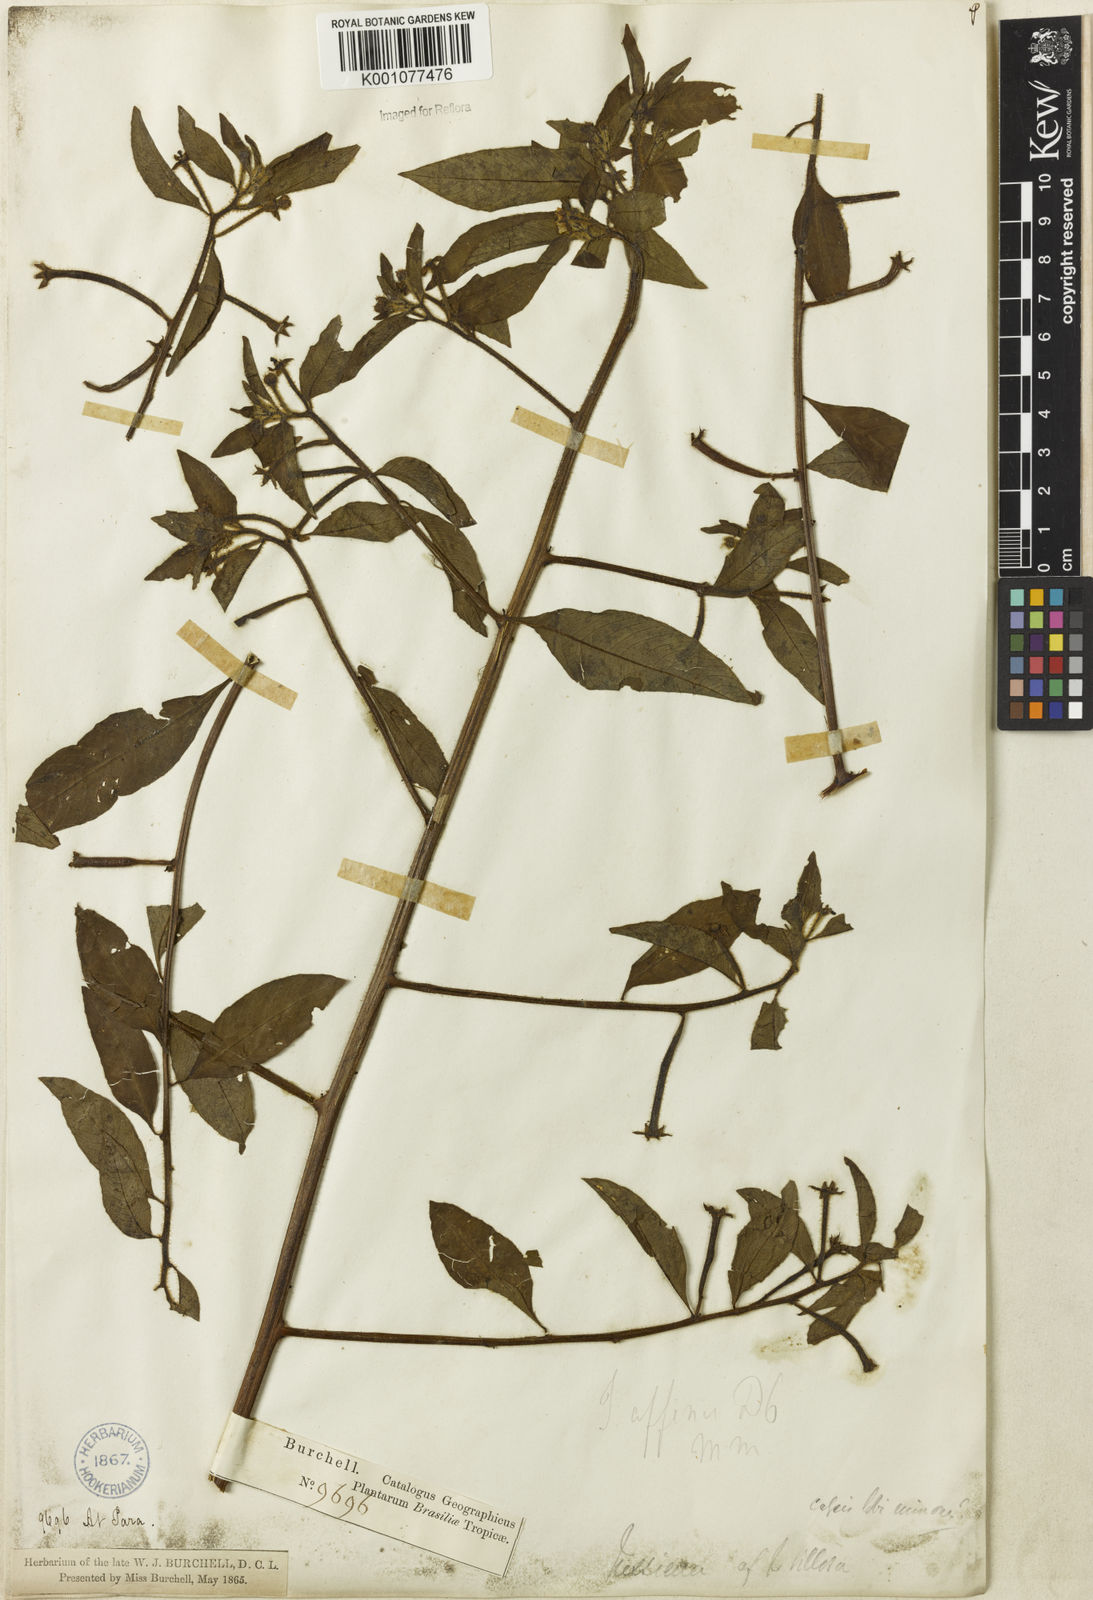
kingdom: Plantae
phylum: Tracheophyta
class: Magnoliopsida
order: Myrtales
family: Onagraceae
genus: Ludwigia
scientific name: Ludwigia affinis
